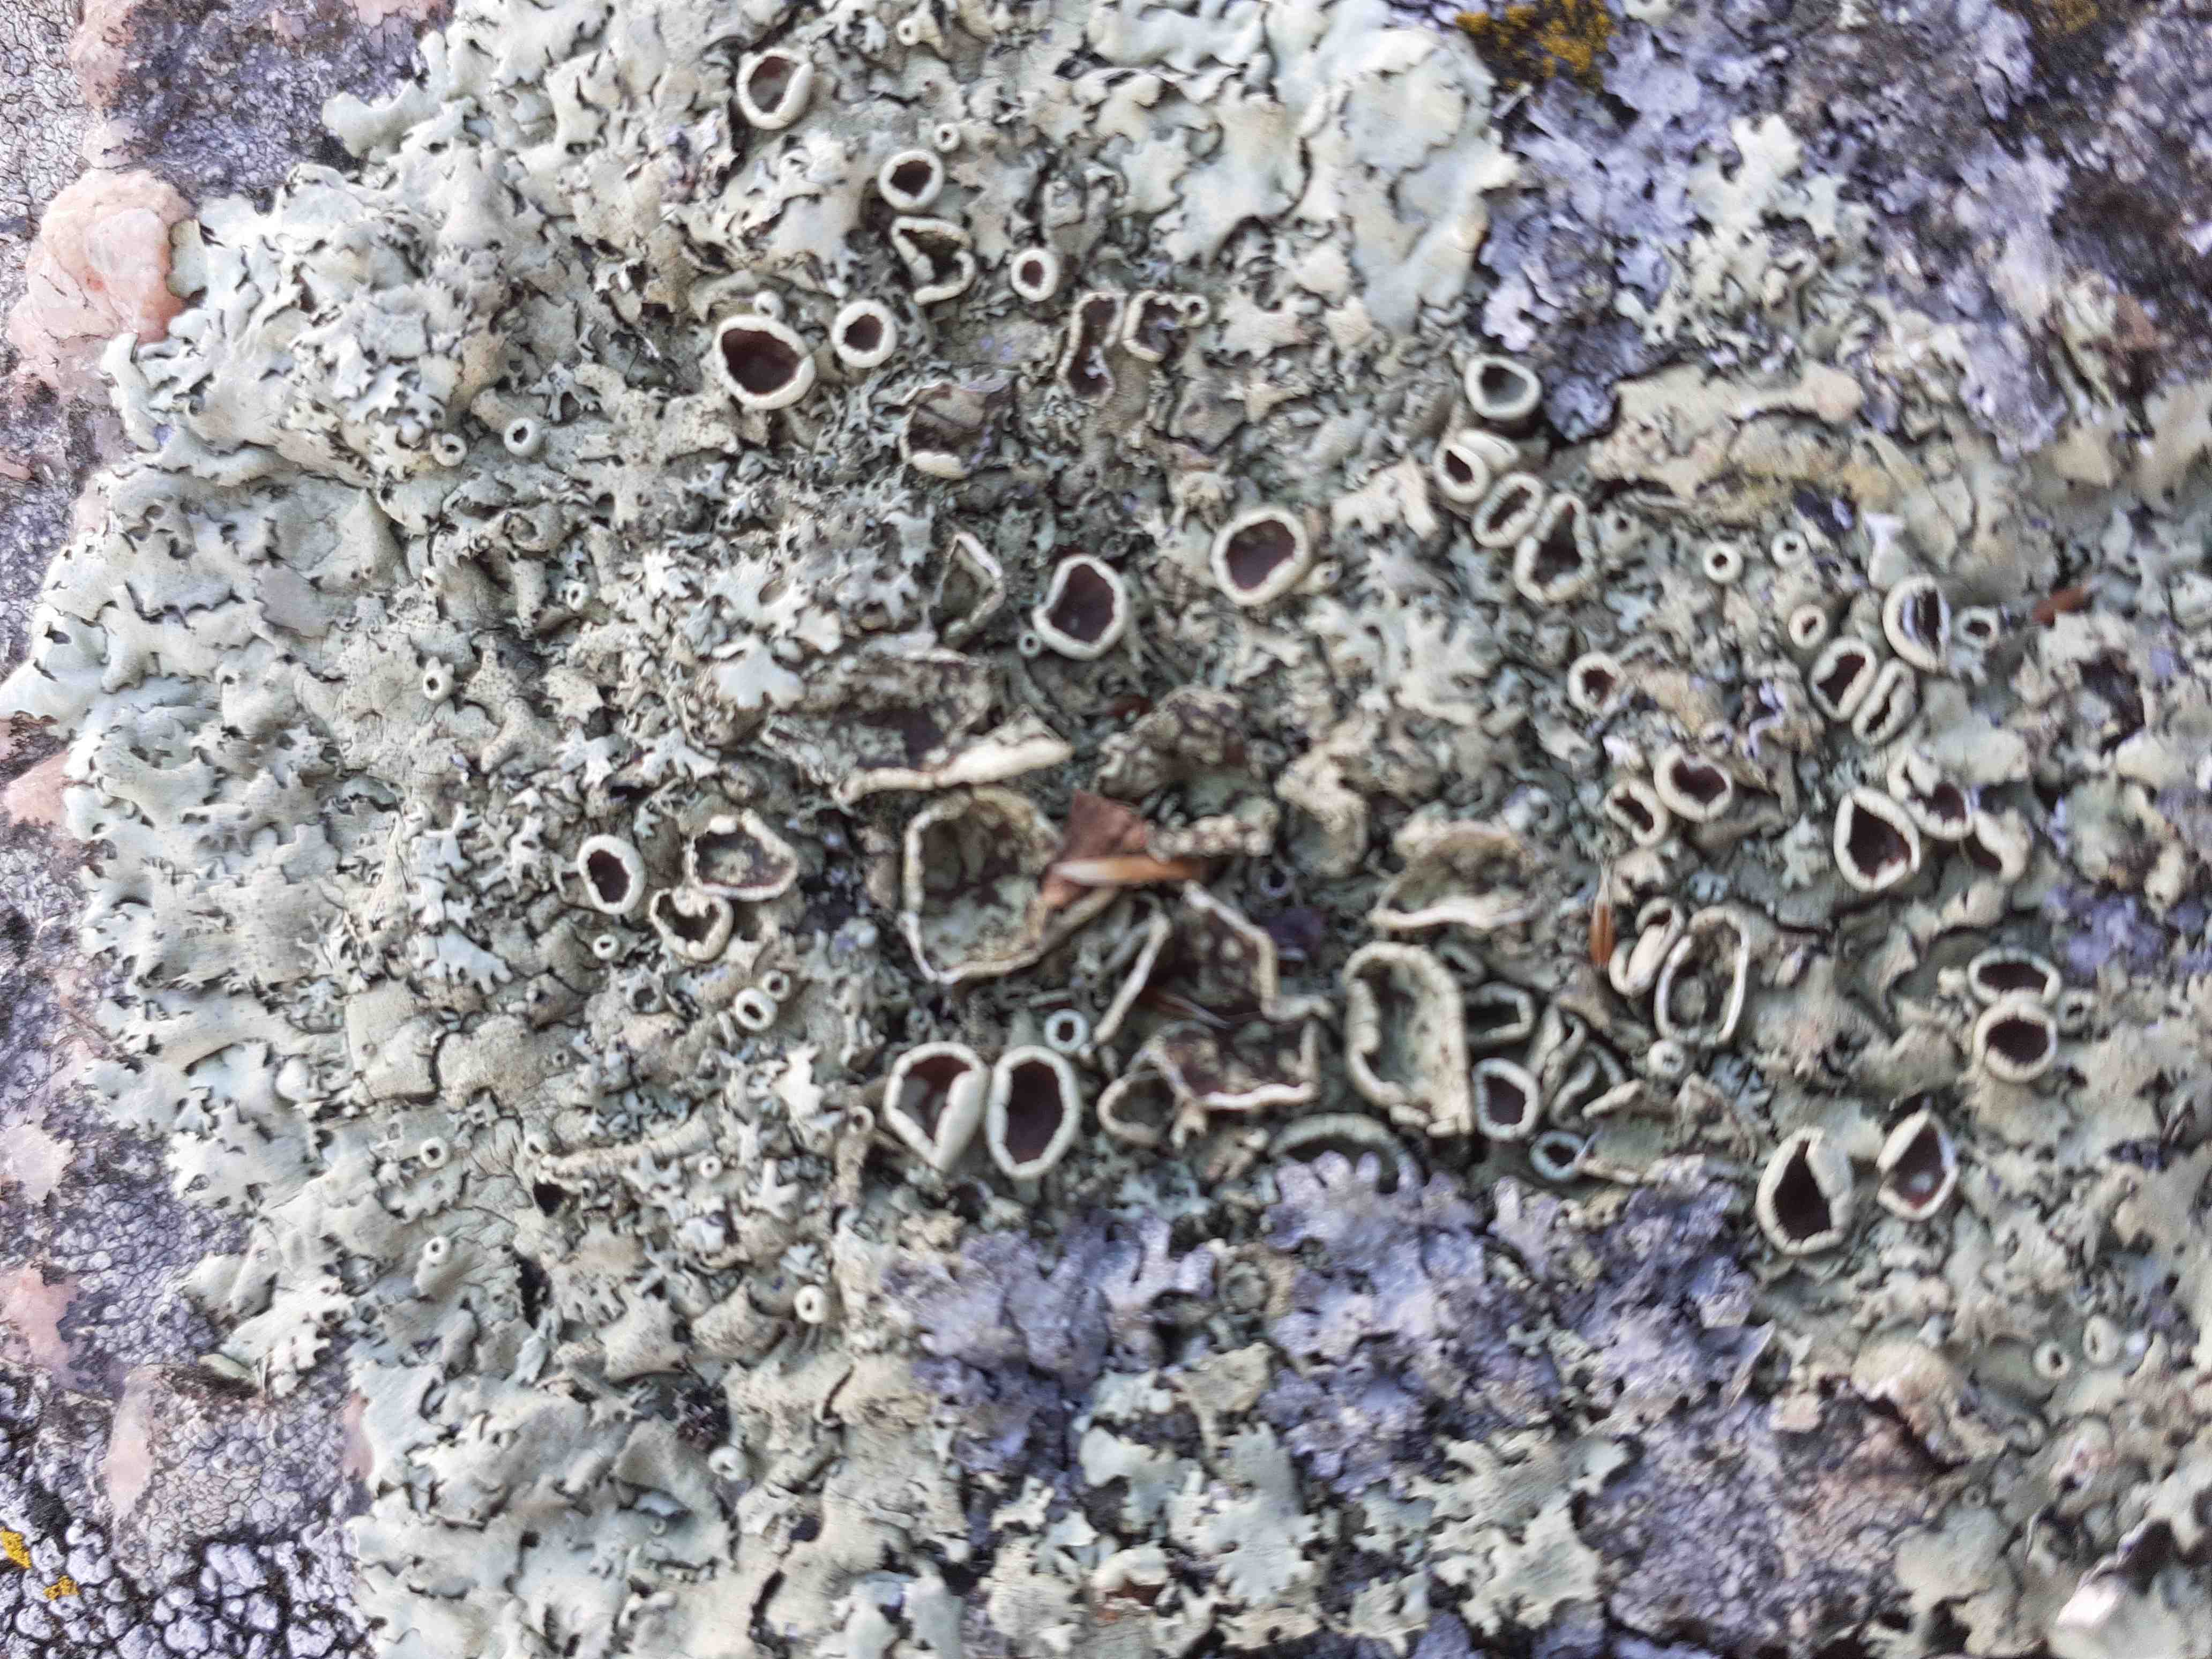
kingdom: Fungi
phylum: Ascomycota
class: Lecanoromycetes
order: Lecanorales
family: Parmeliaceae
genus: Xanthoparmelia
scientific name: Xanthoparmelia stenophylla
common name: Shingled rock shield
